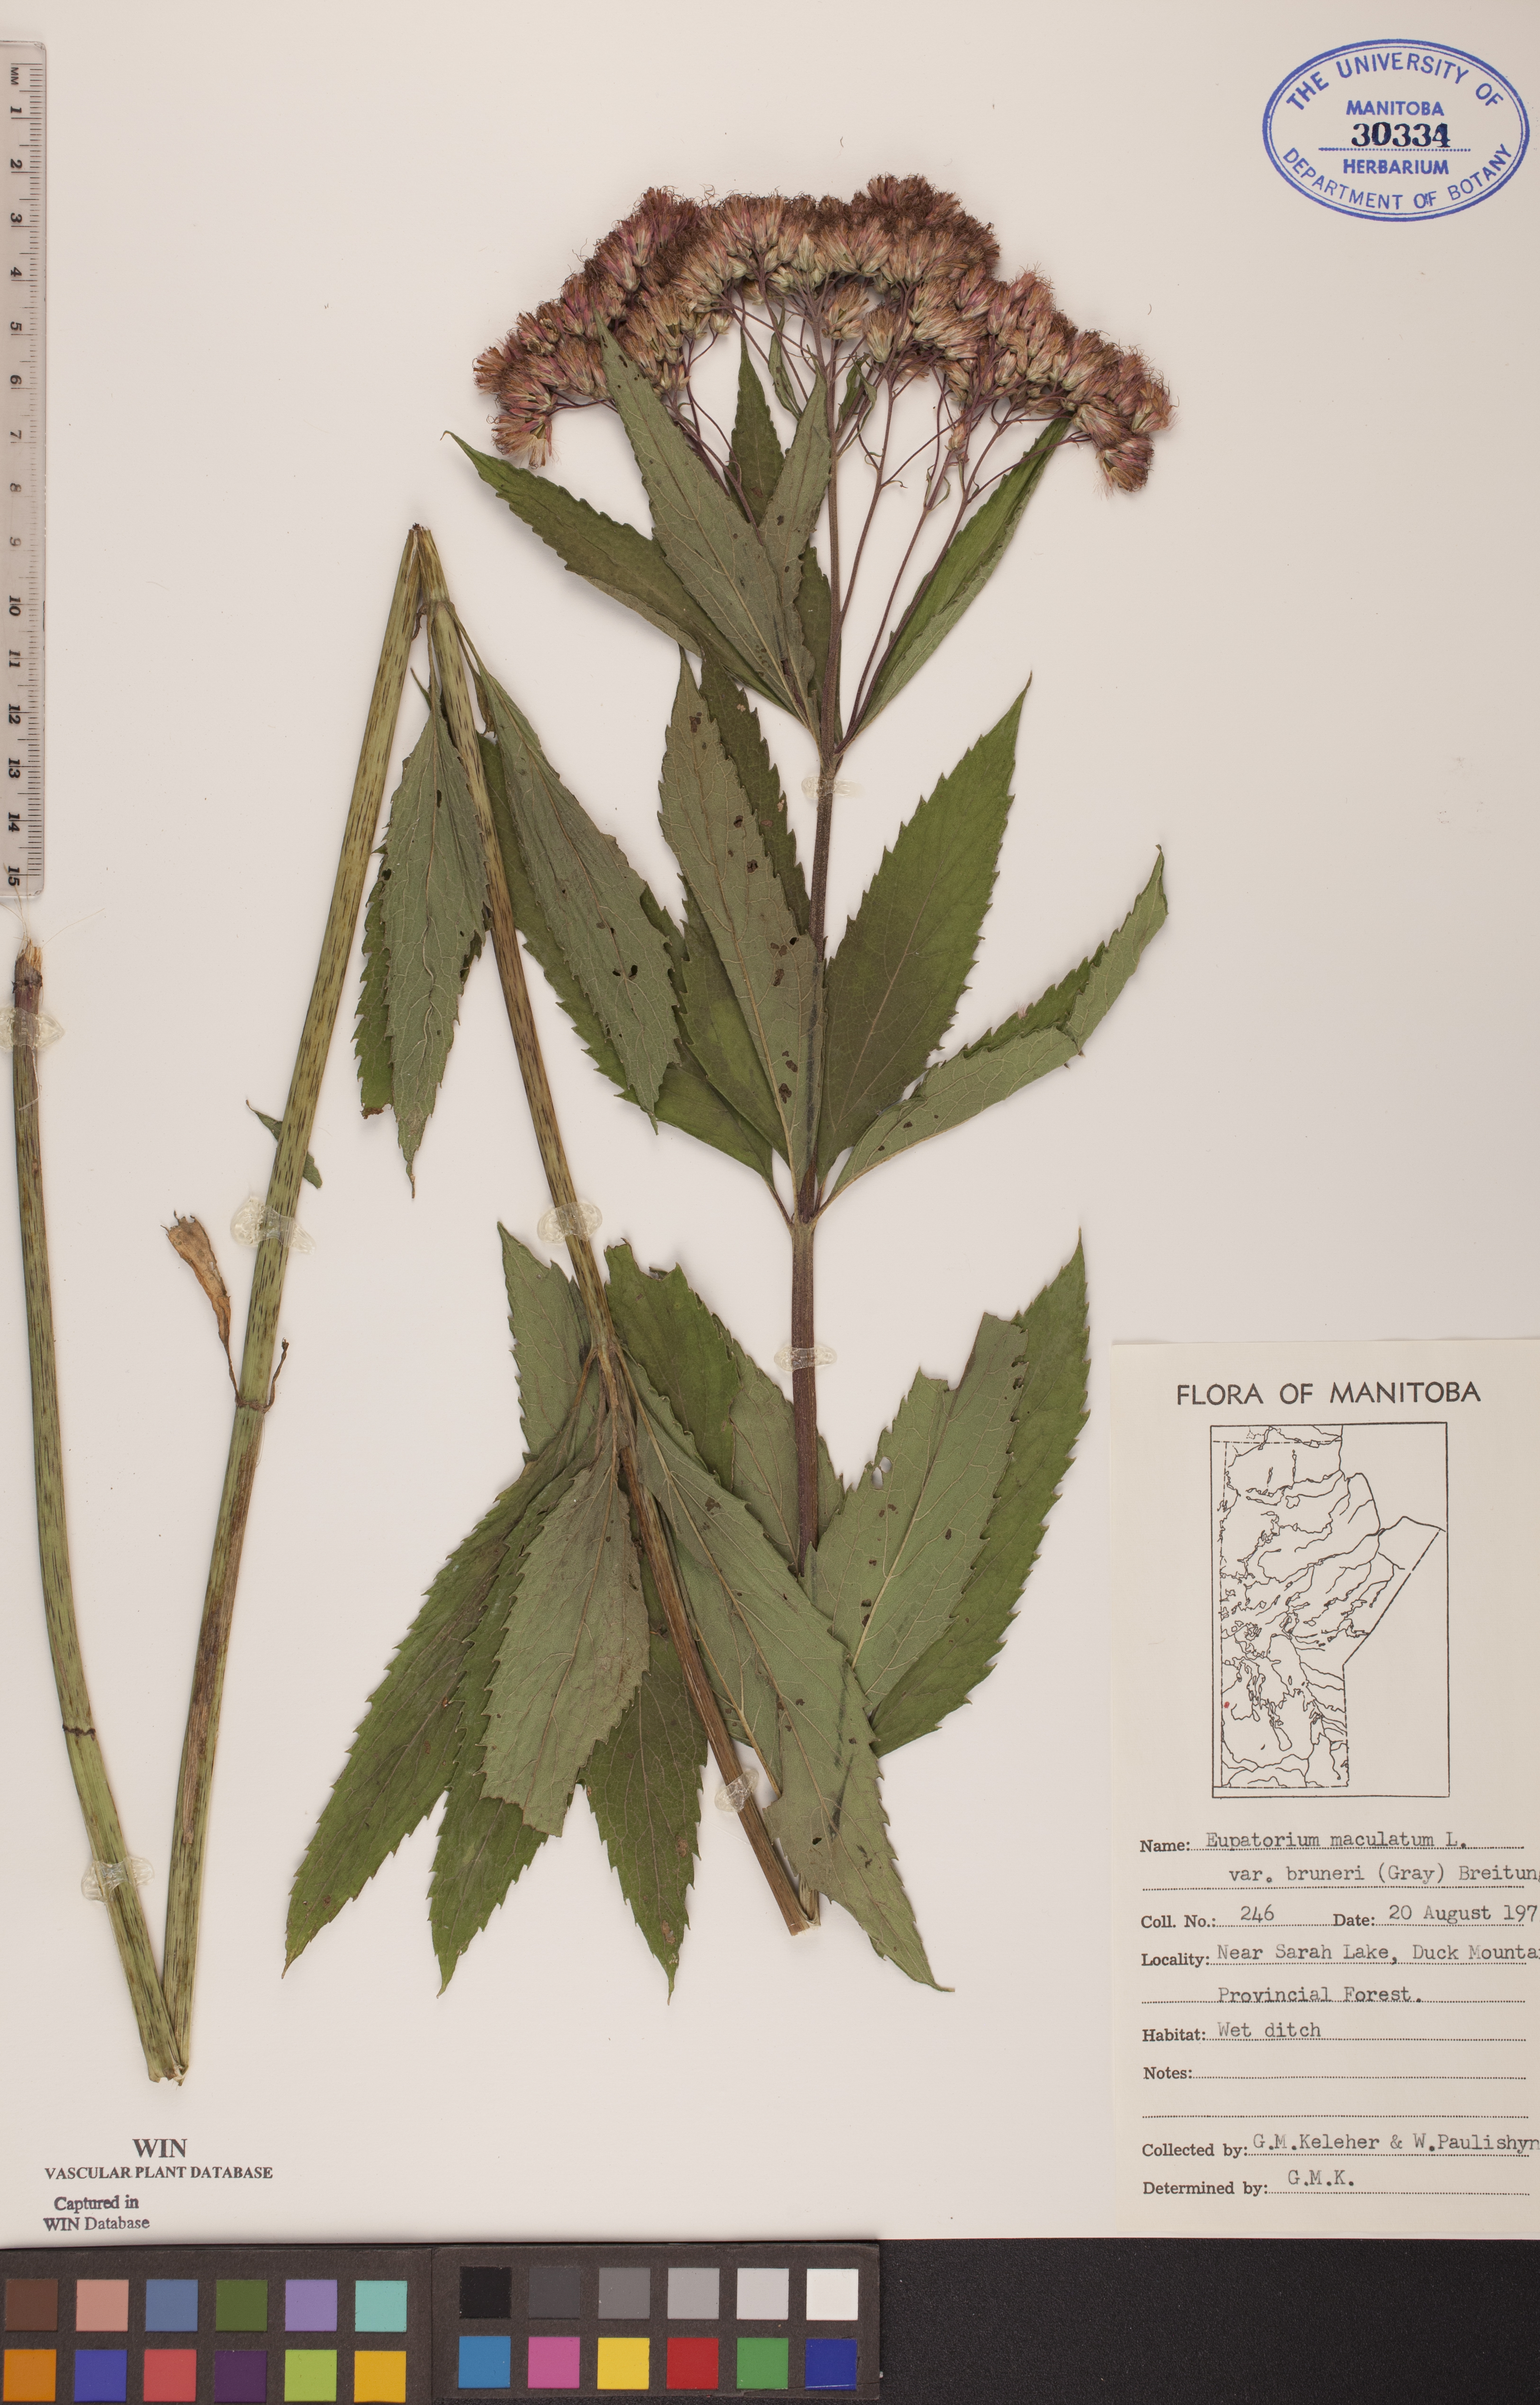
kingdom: Plantae
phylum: Tracheophyta
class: Magnoliopsida
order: Asterales
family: Asteraceae
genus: Eutrochium
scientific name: Eutrochium maculatum
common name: Spotted joe pye weed
